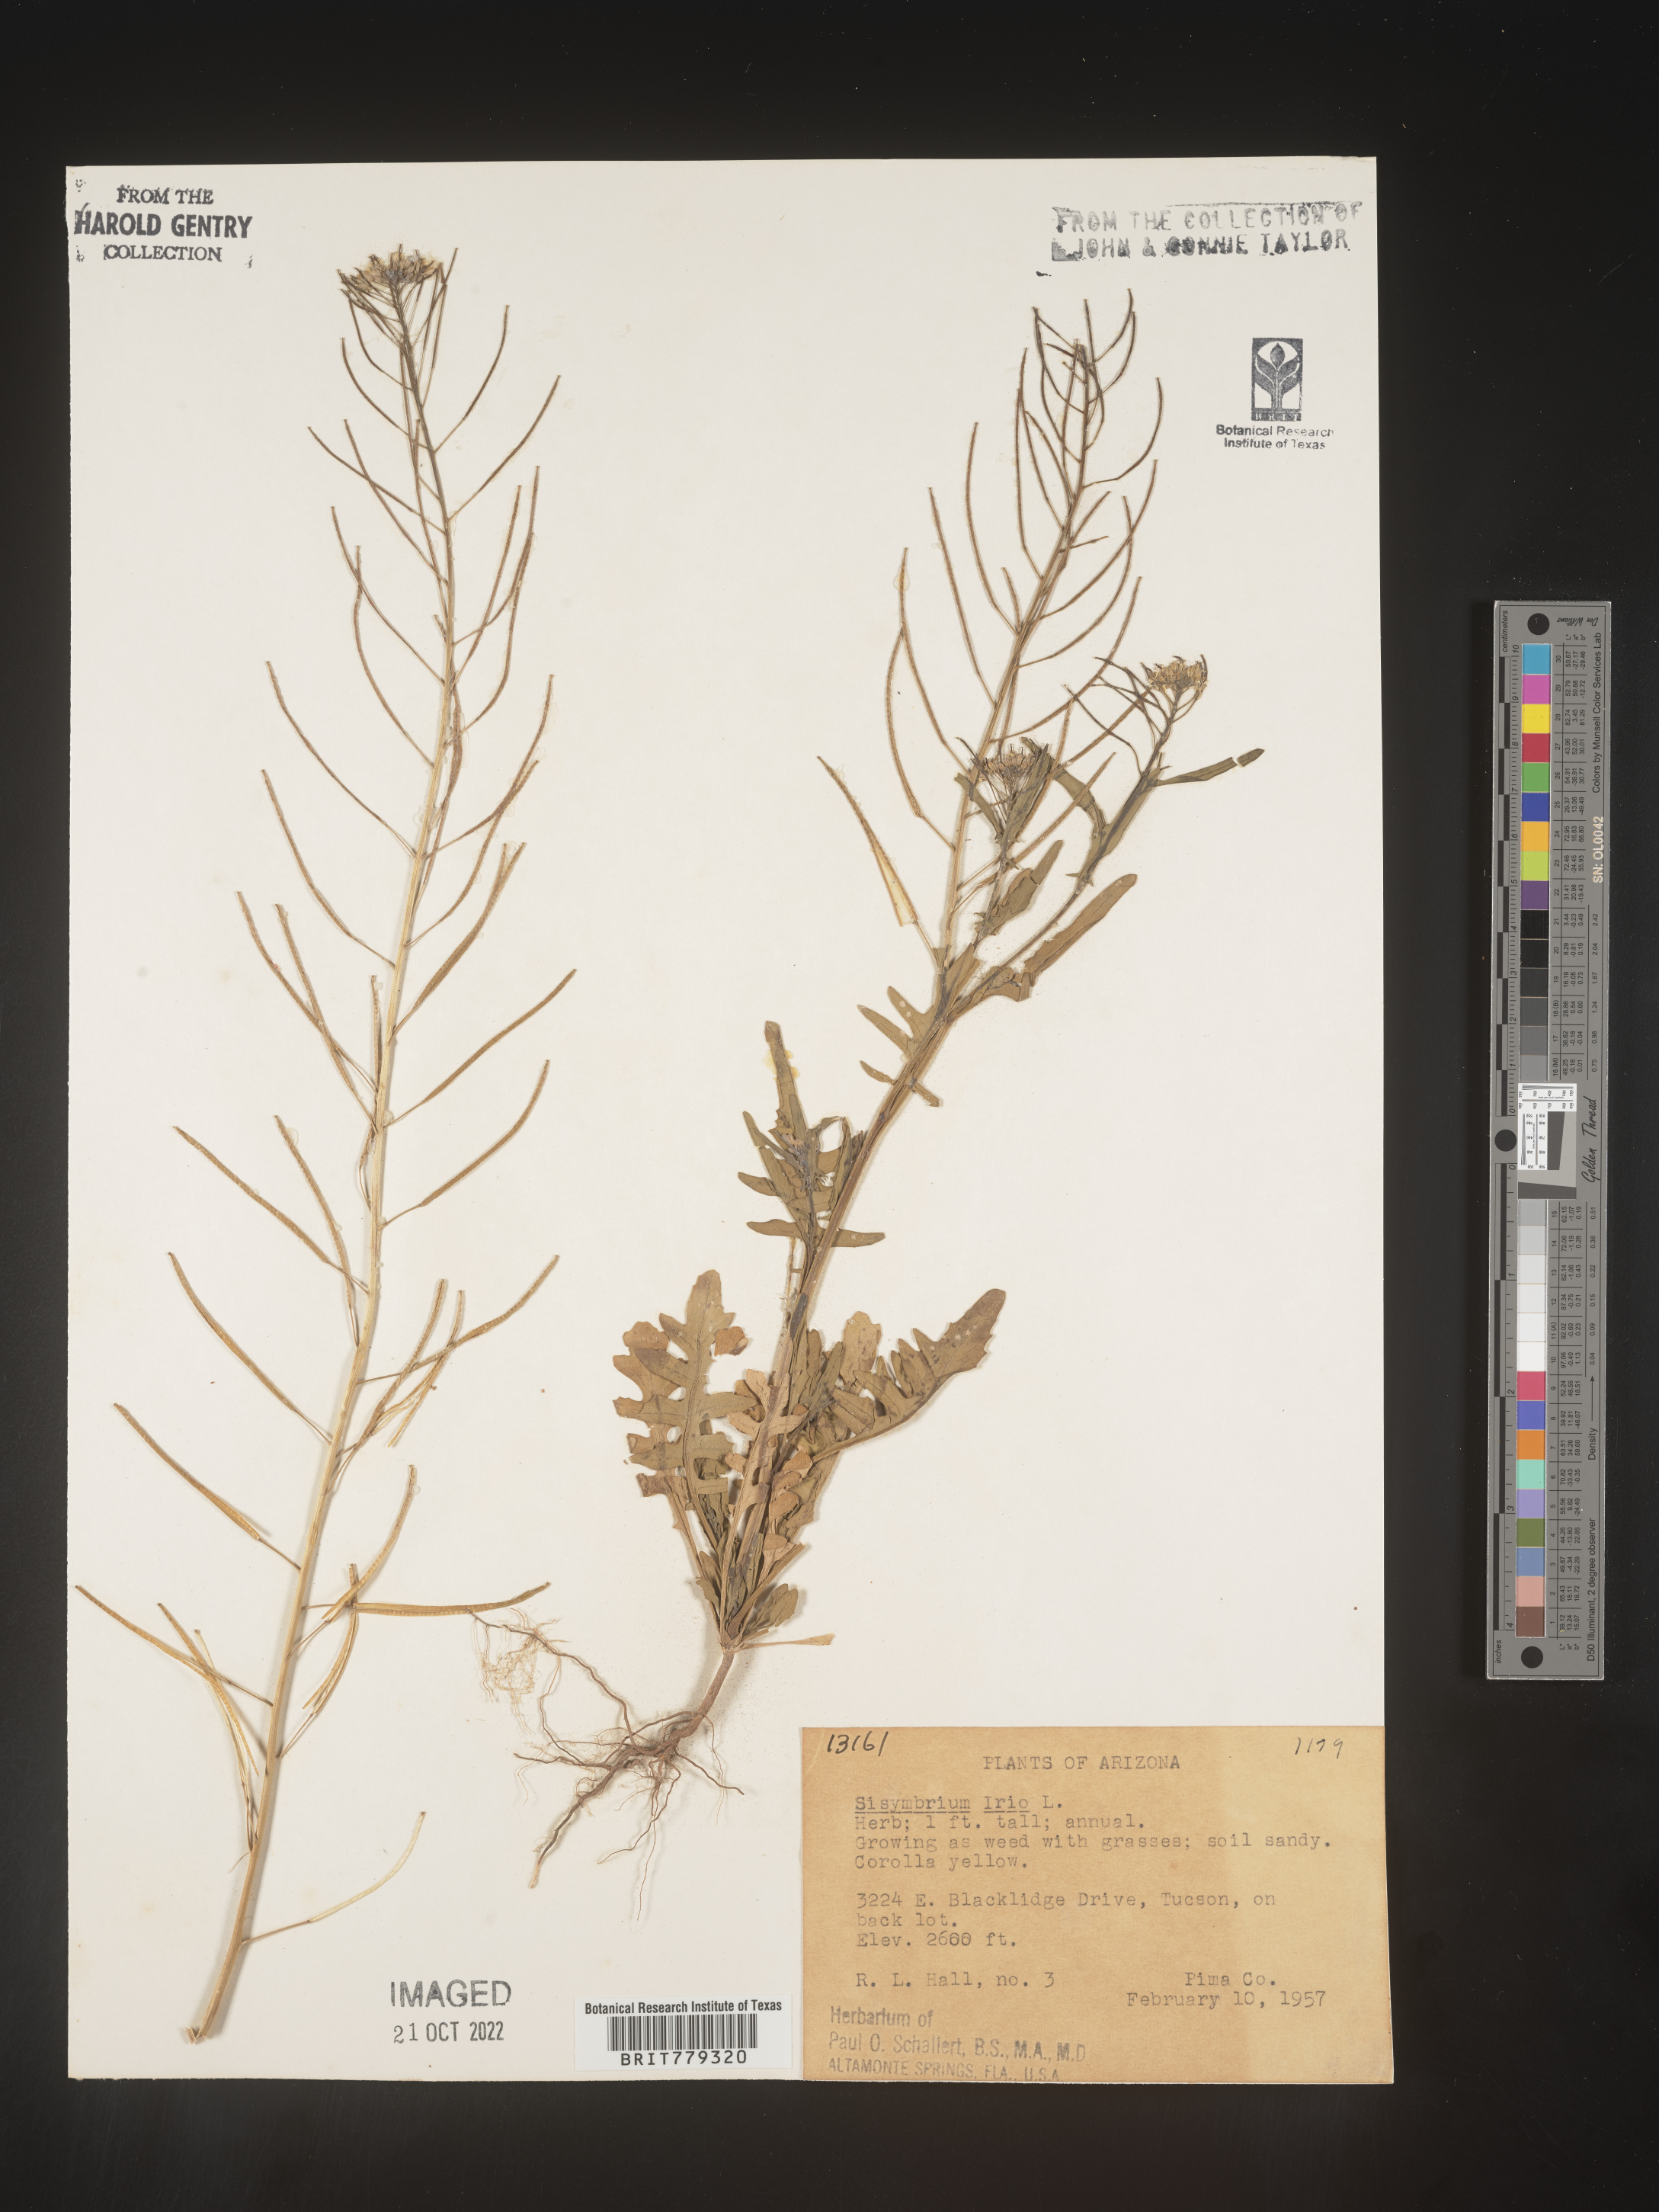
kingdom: Plantae
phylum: Tracheophyta
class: Magnoliopsida
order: Brassicales
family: Brassicaceae
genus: Sisymbrium
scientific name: Sisymbrium
